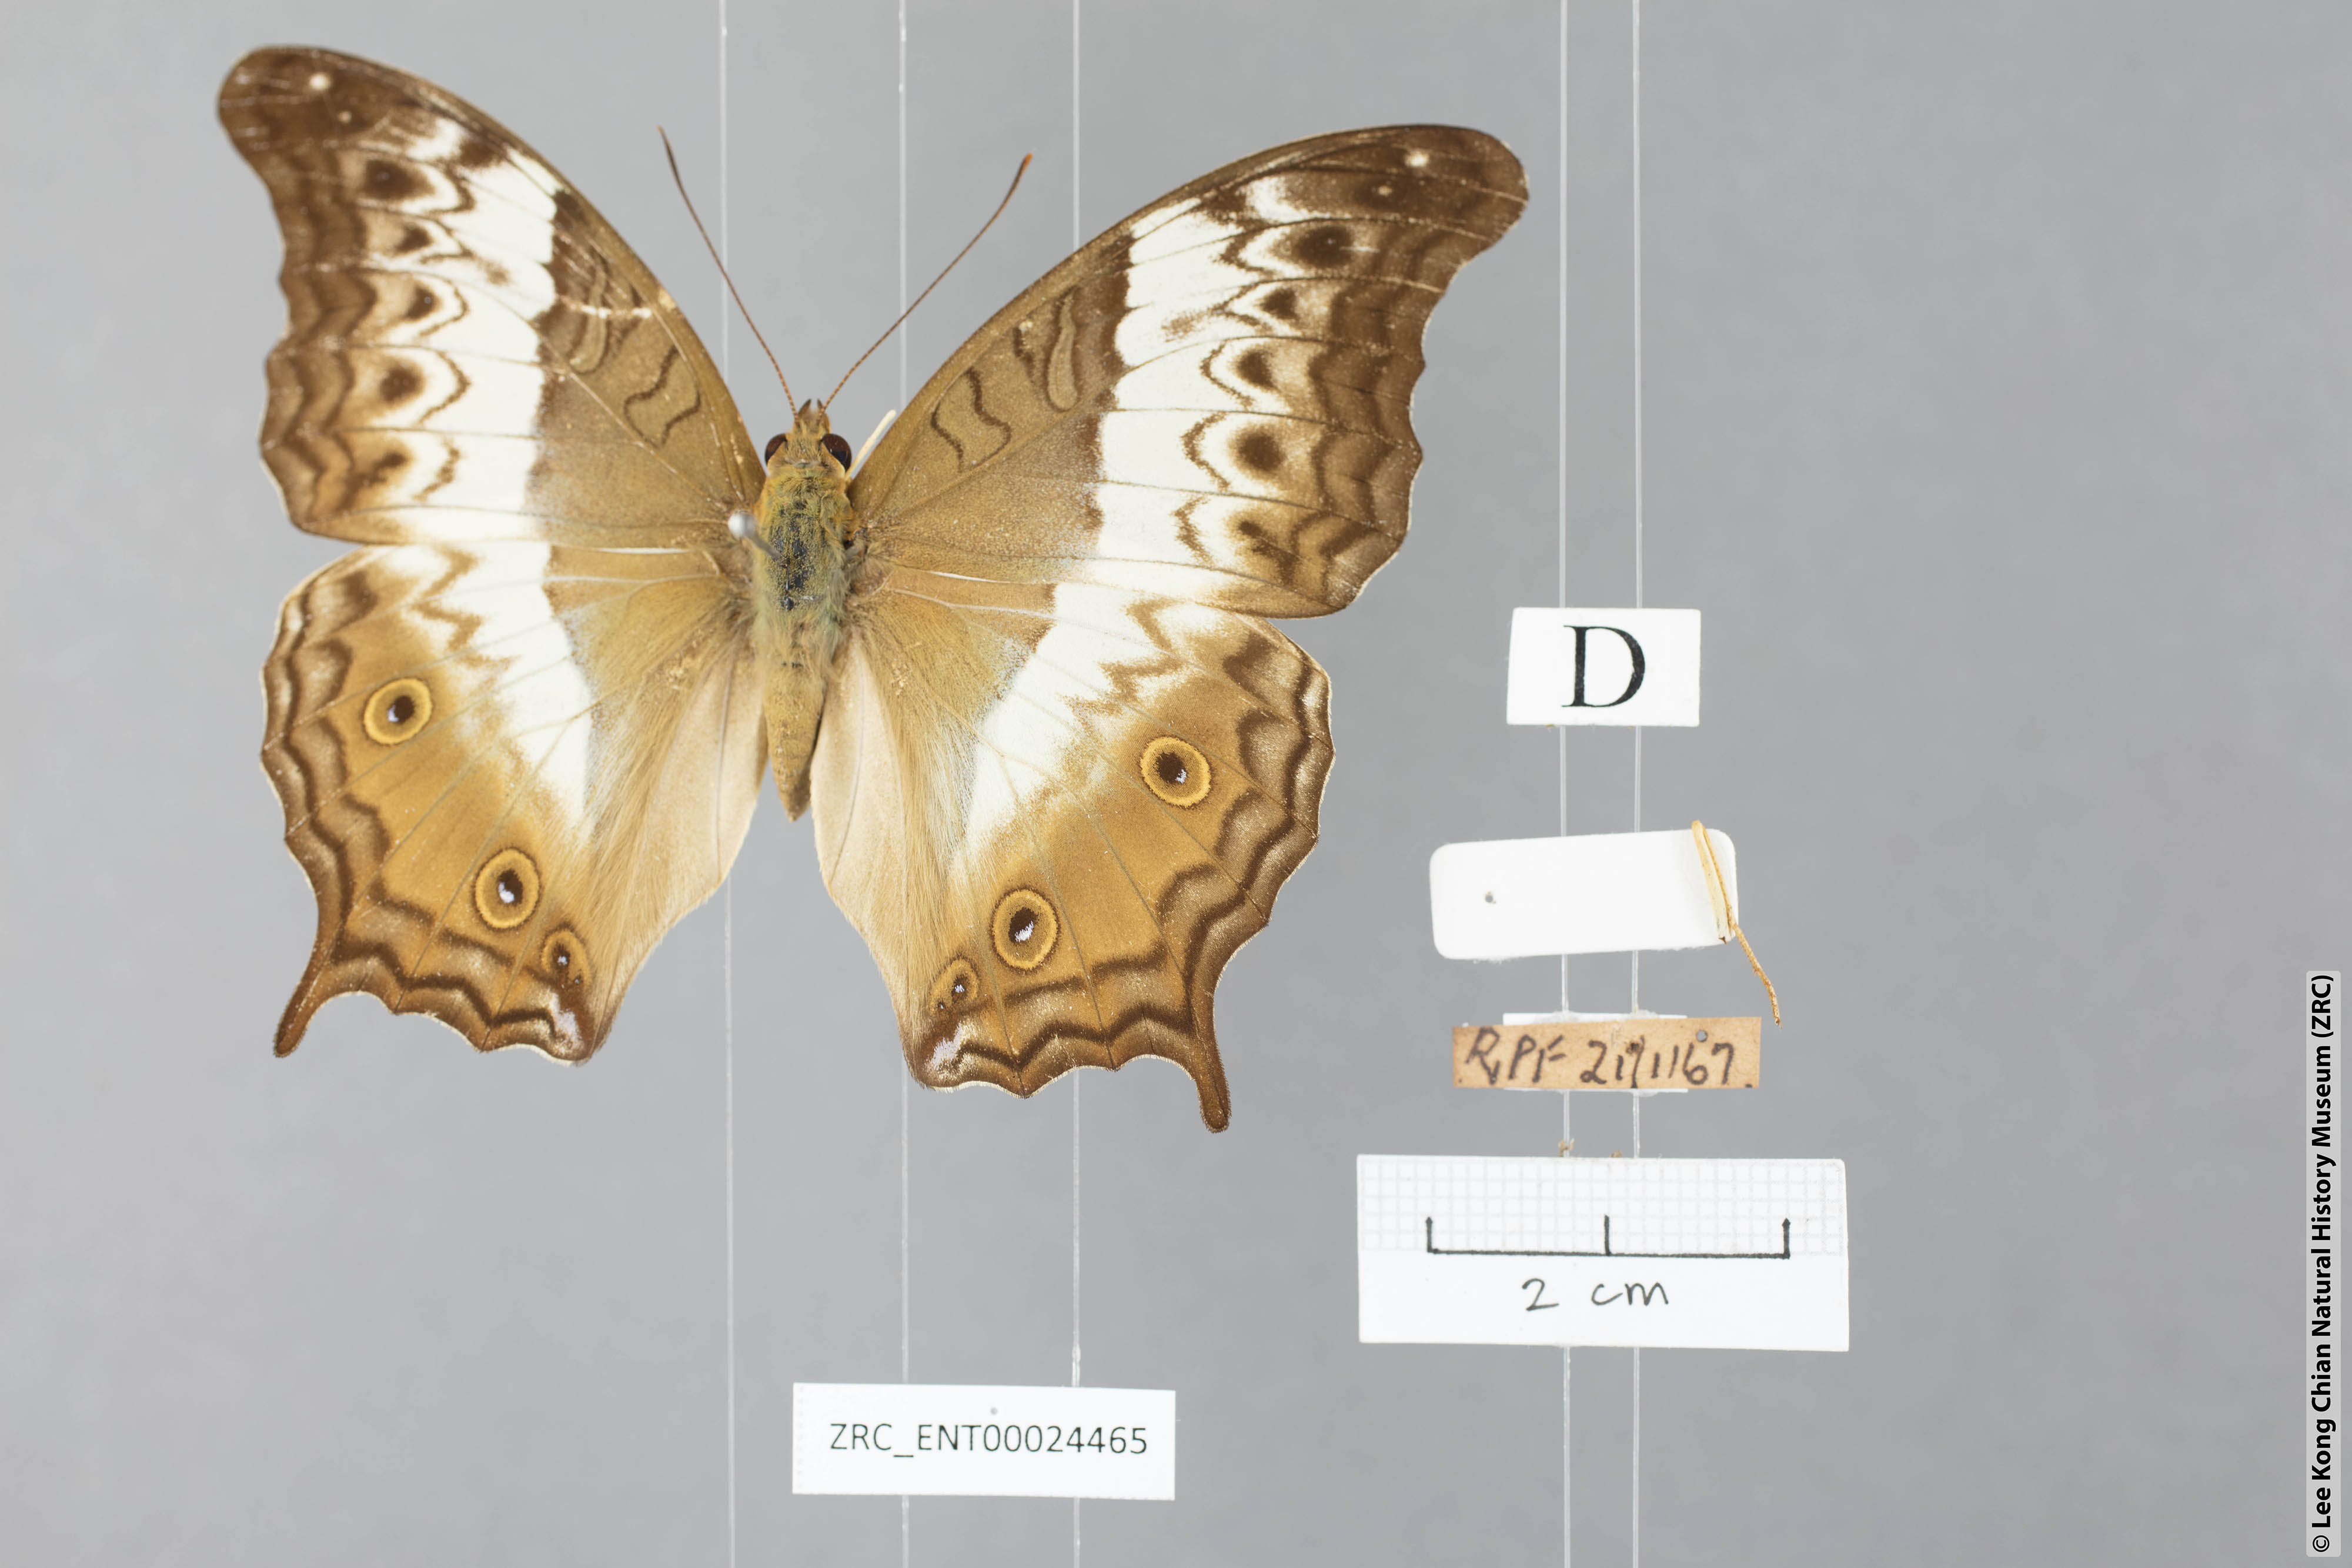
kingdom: Animalia
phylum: Arthropoda
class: Insecta
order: Lepidoptera
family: Nymphalidae
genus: Vindula
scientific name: Vindula deione
